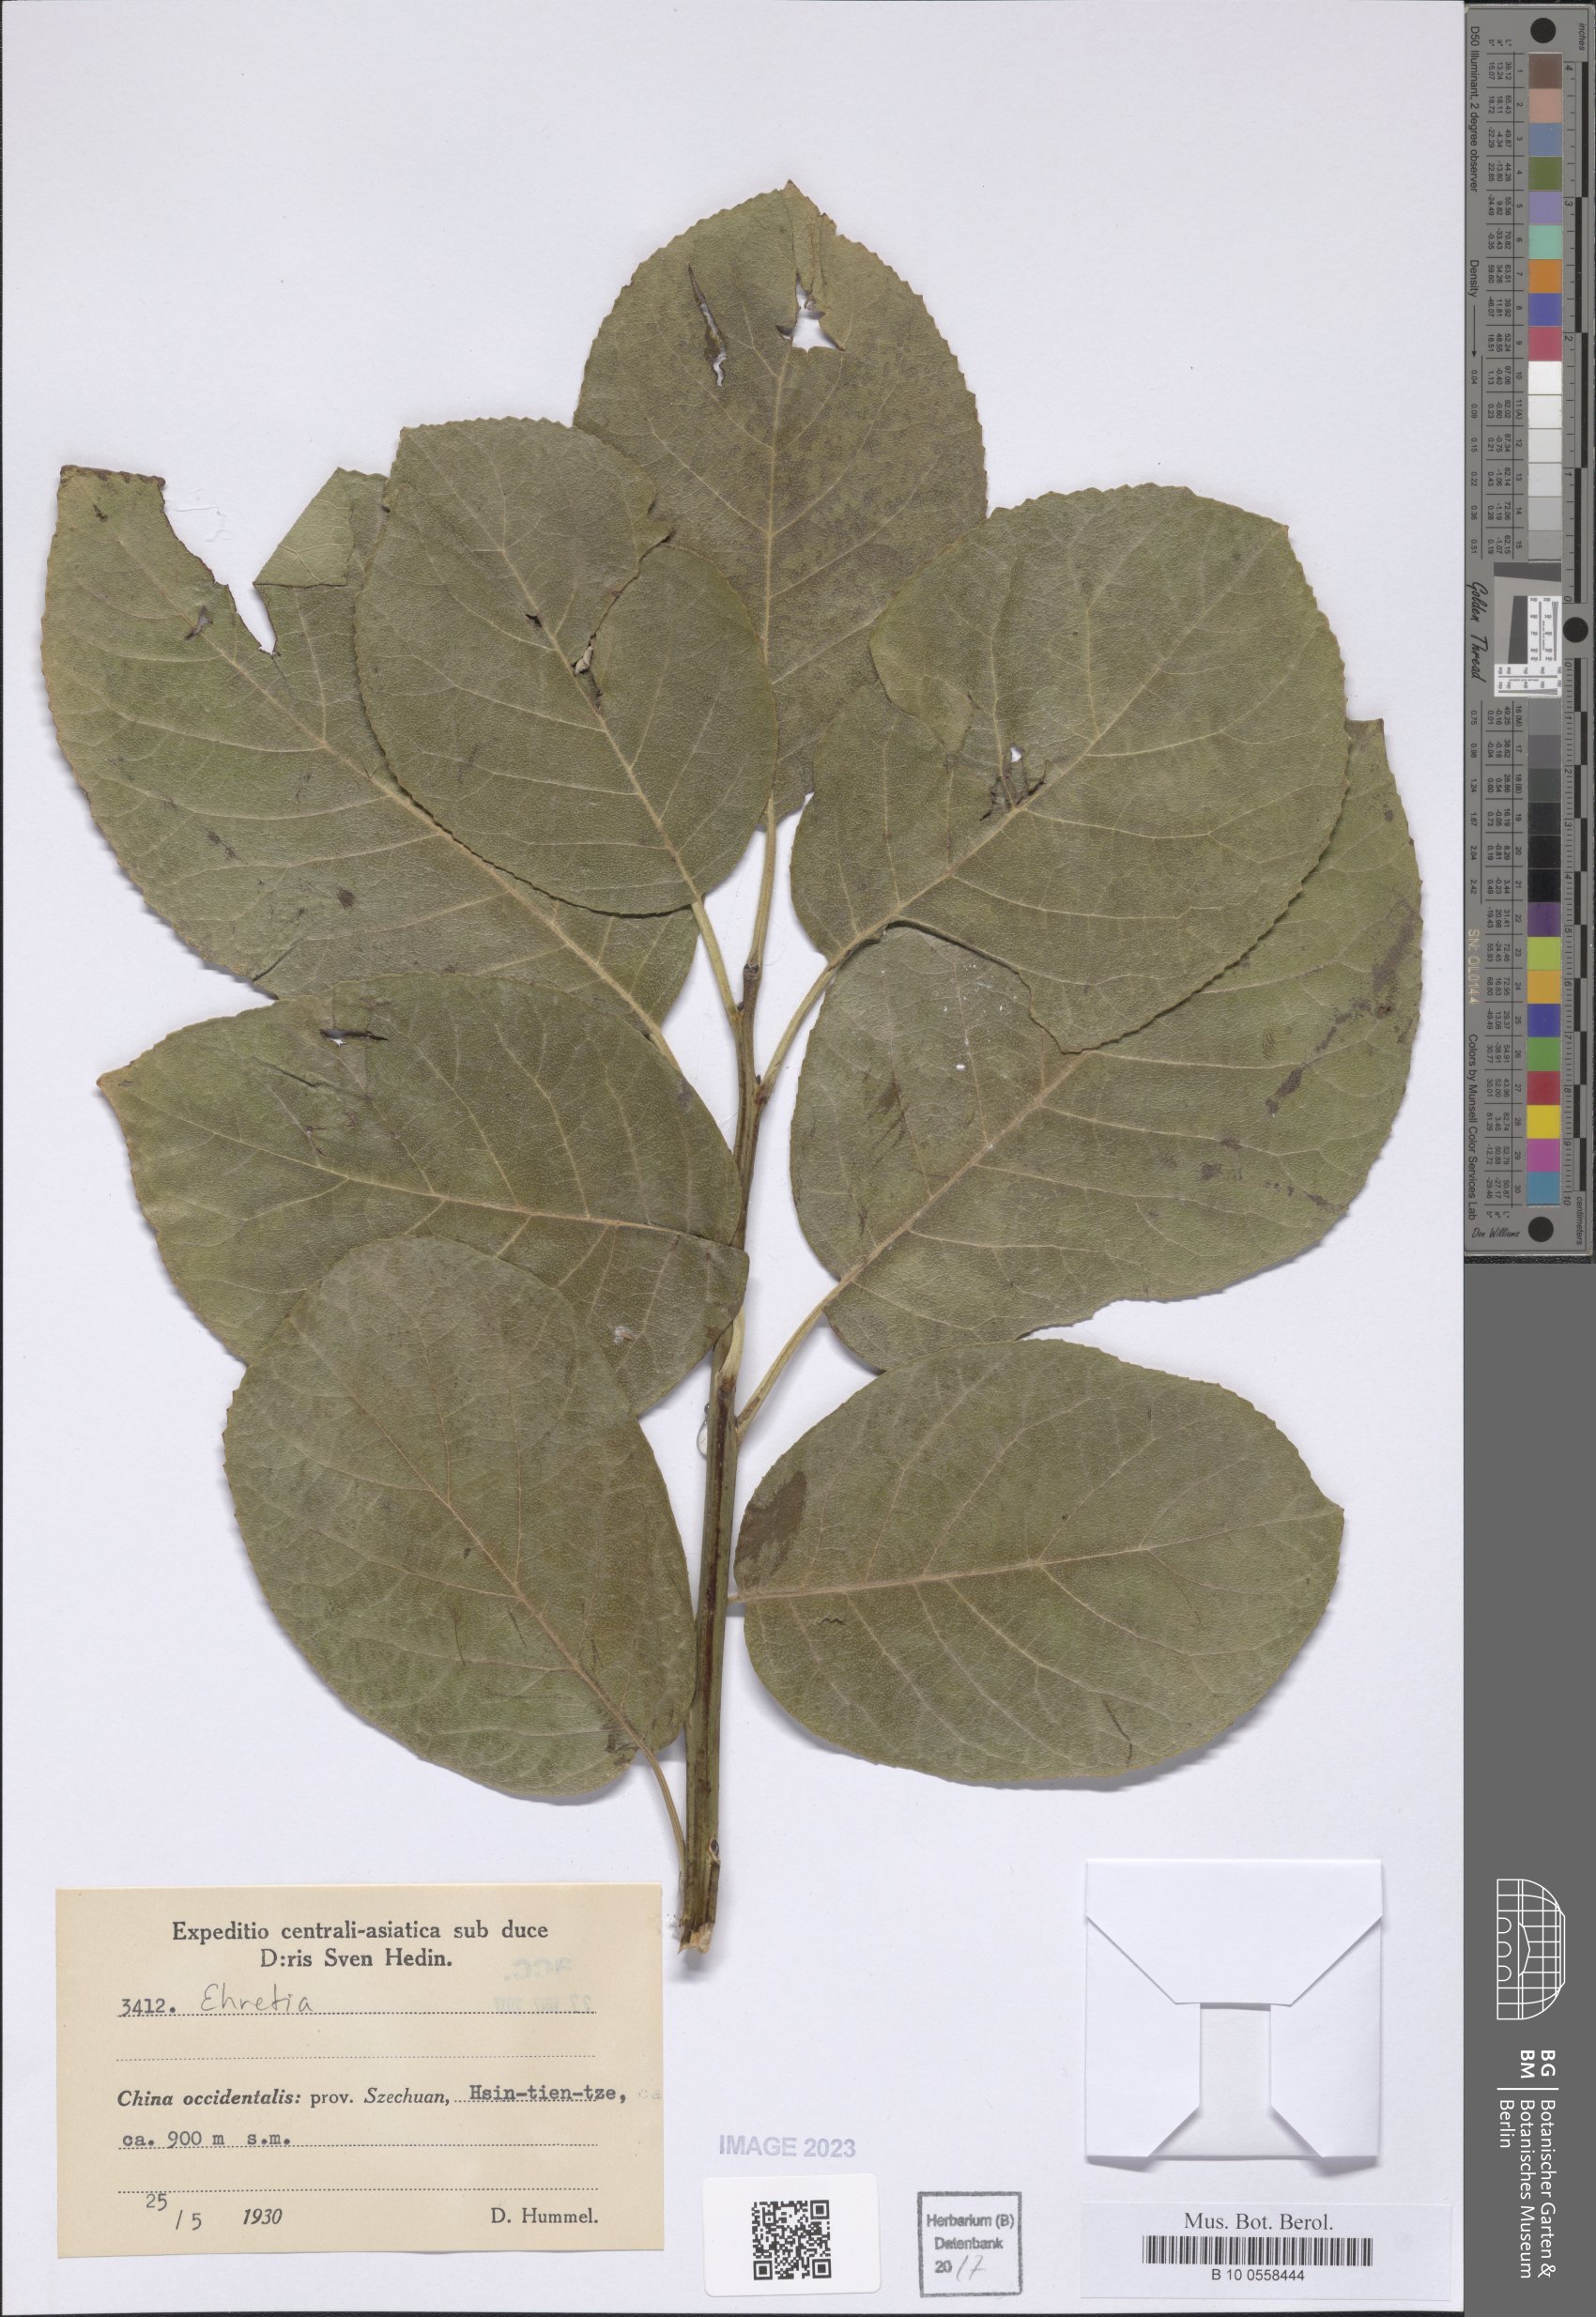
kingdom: Plantae
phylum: Tracheophyta
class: Magnoliopsida
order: Boraginales
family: Ehretiaceae
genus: Ehretia
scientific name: Ehretia
